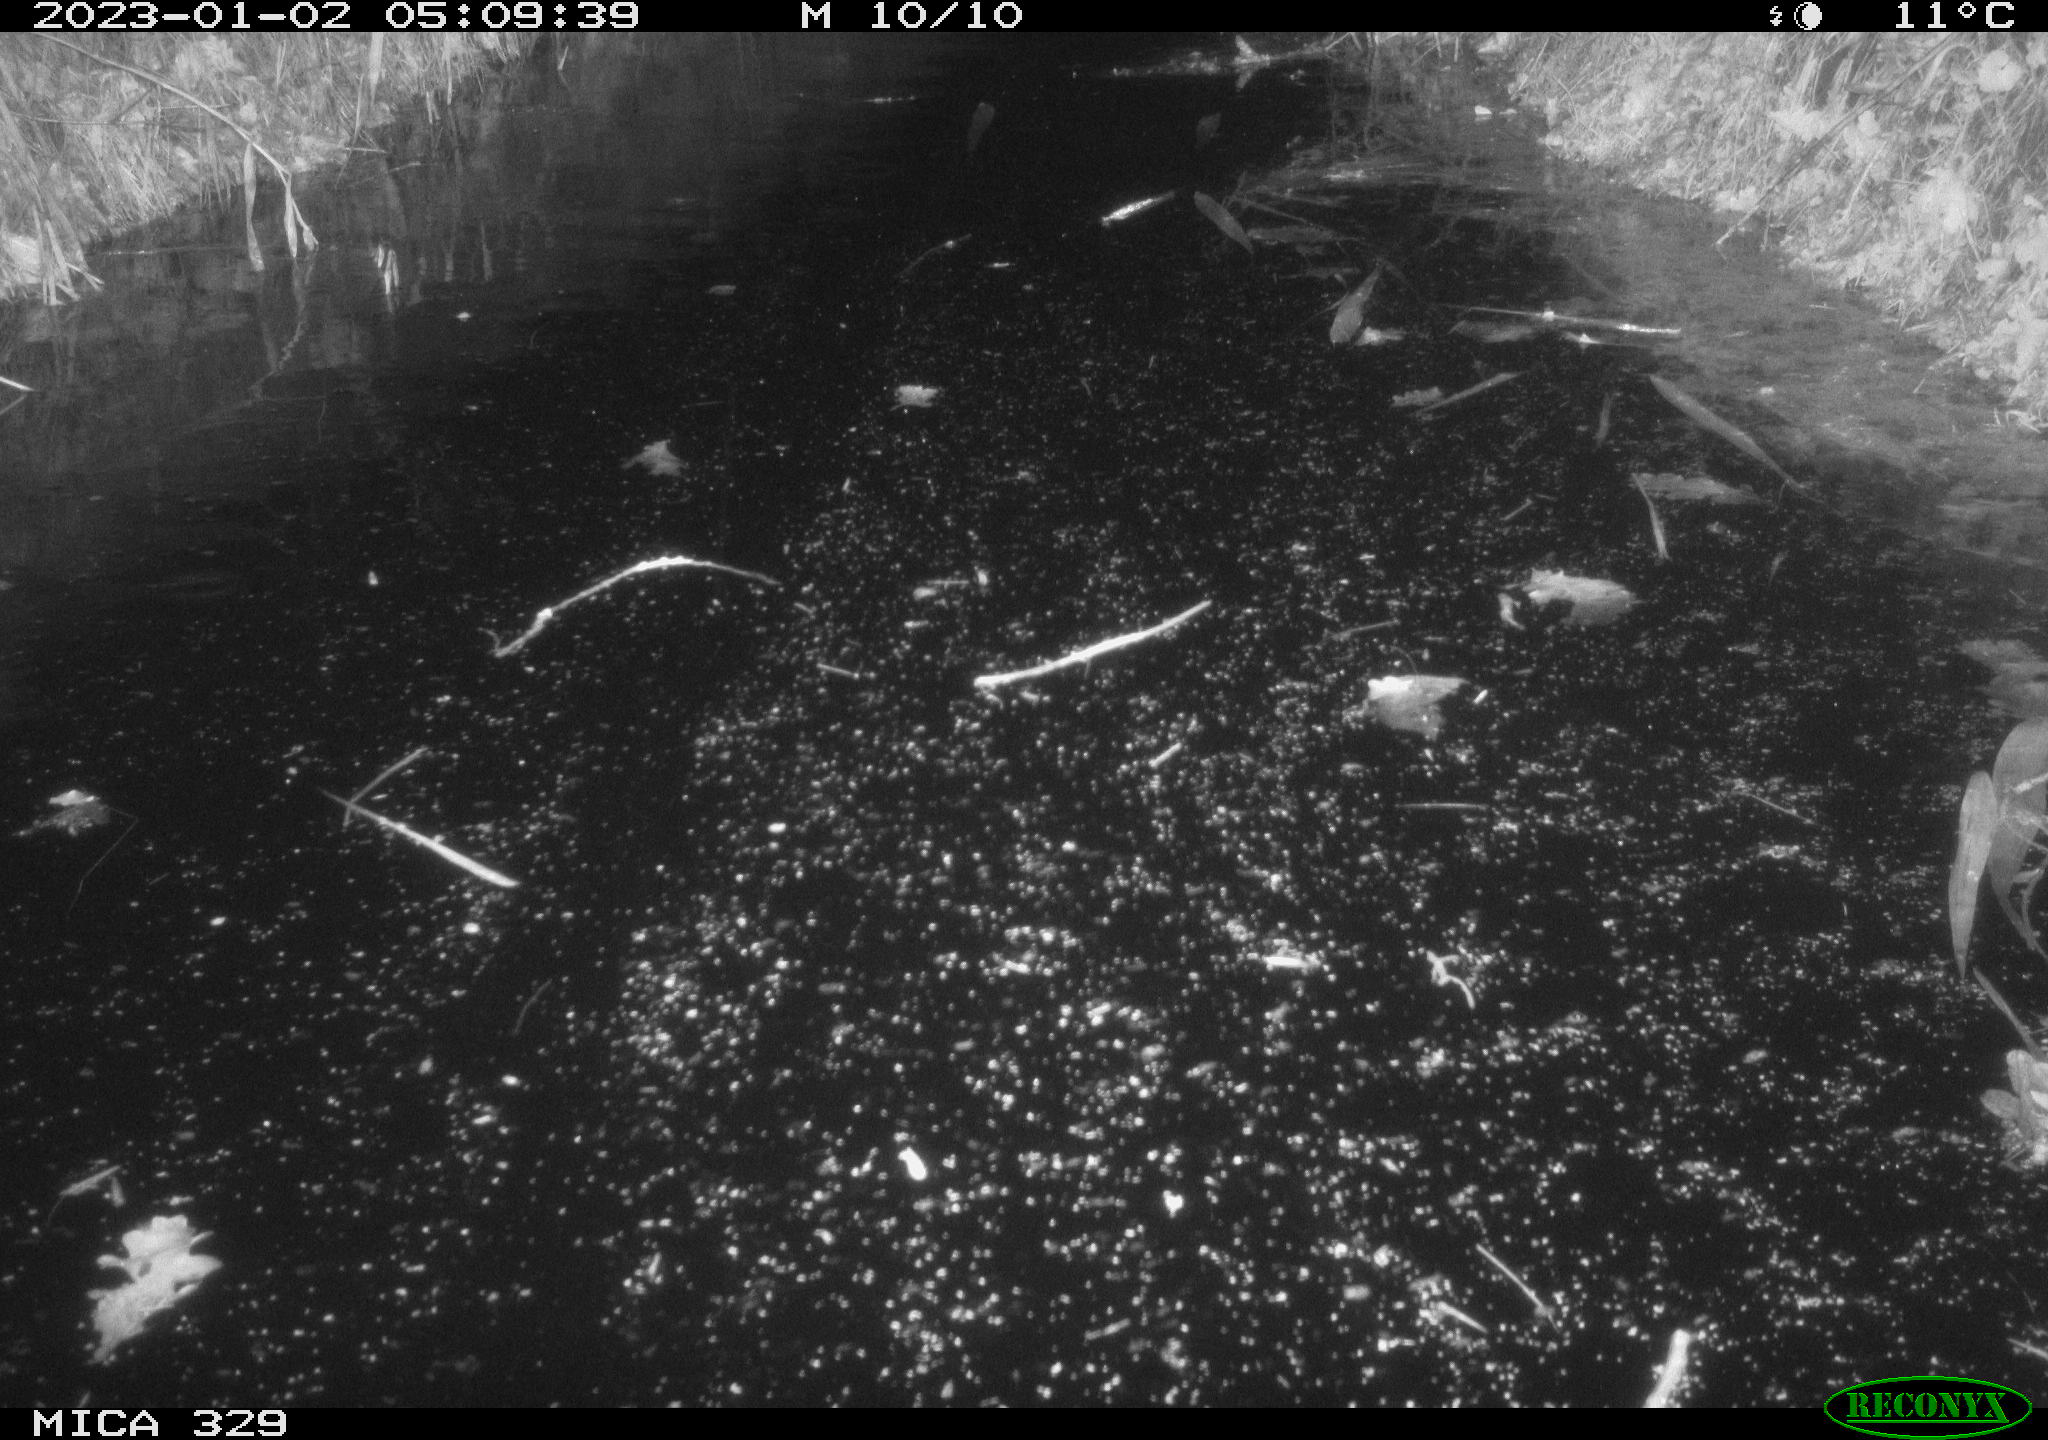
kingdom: Animalia
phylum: Chordata
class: Mammalia
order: Rodentia
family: Cricetidae
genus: Ondatra
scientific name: Ondatra zibethicus
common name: Muskrat
